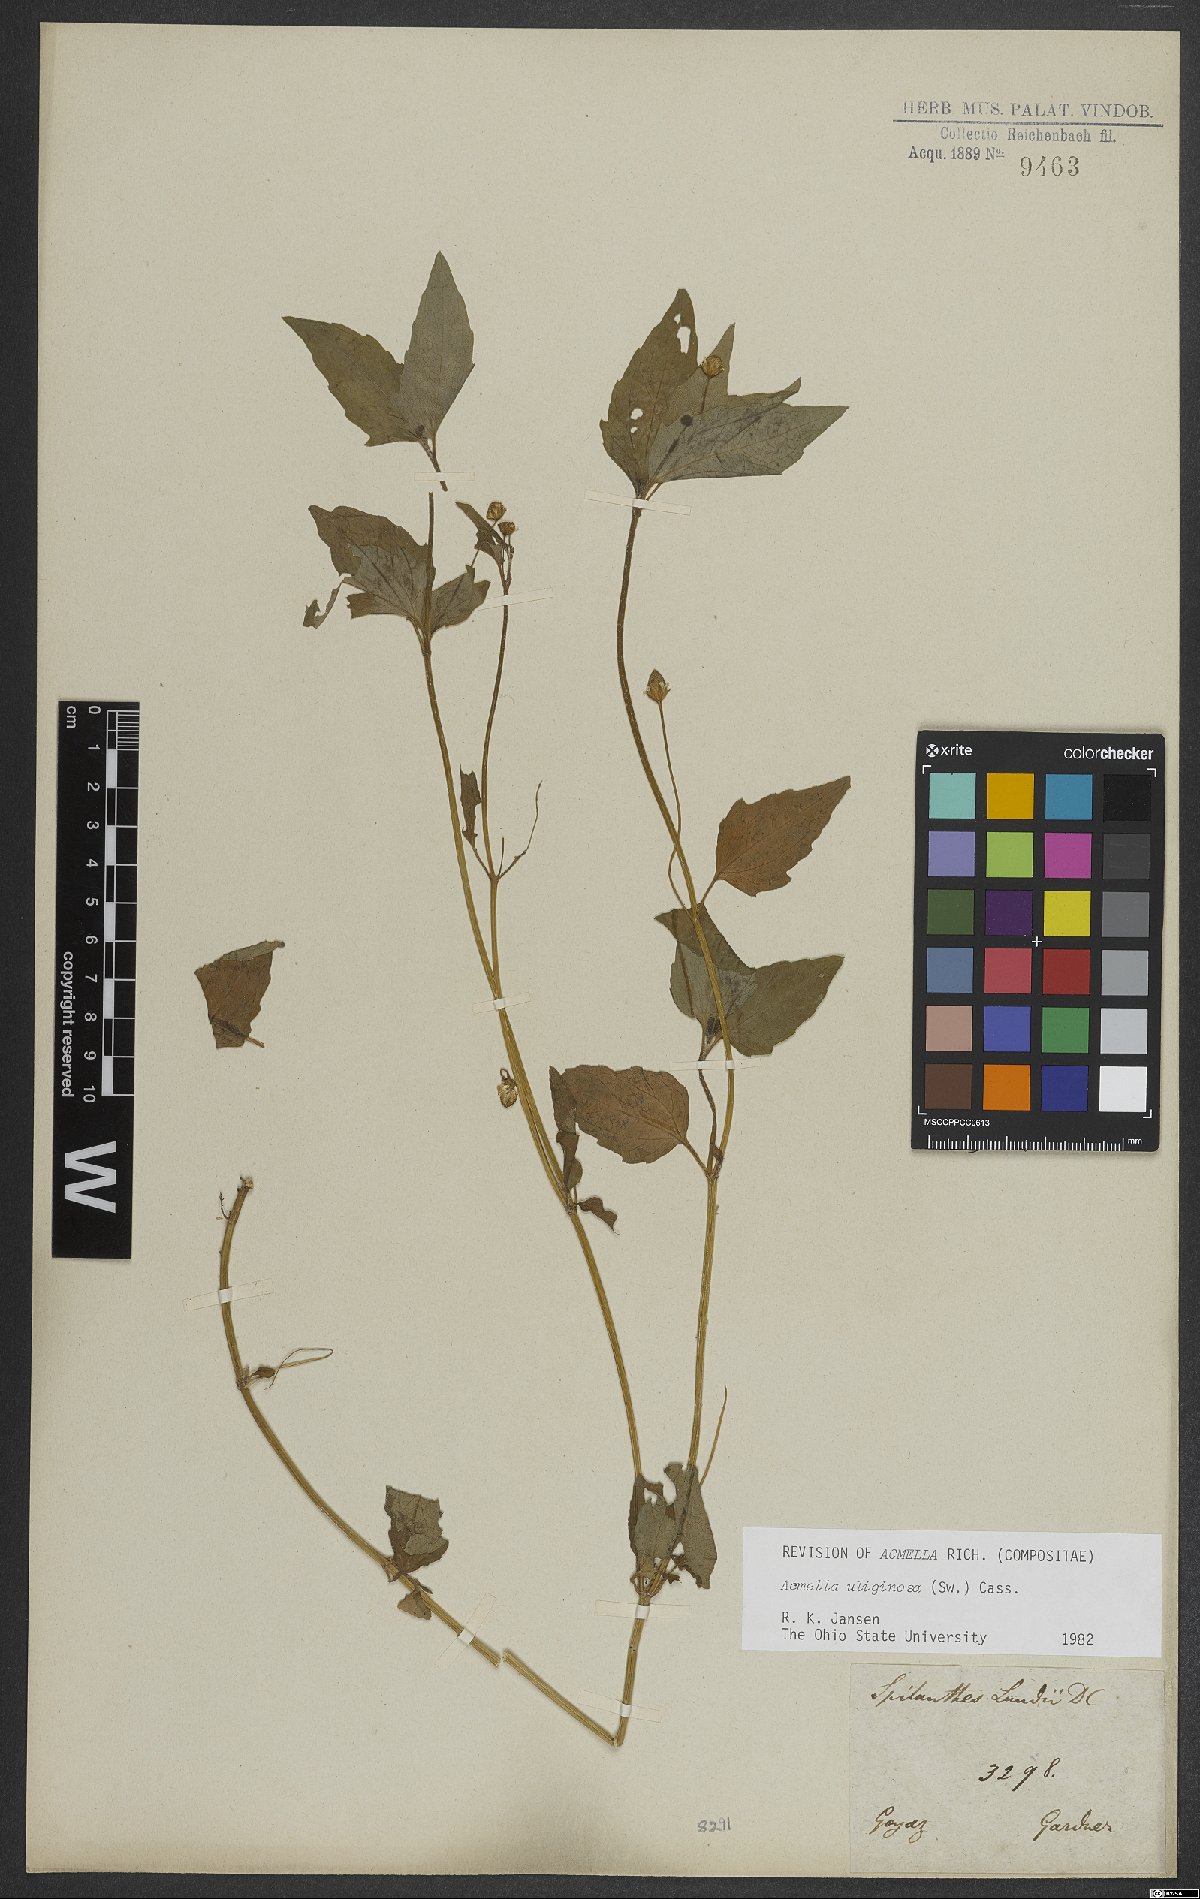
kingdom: Plantae
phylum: Tracheophyta
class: Magnoliopsida
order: Asterales
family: Asteraceae
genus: Acmella
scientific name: Acmella uliginosa
